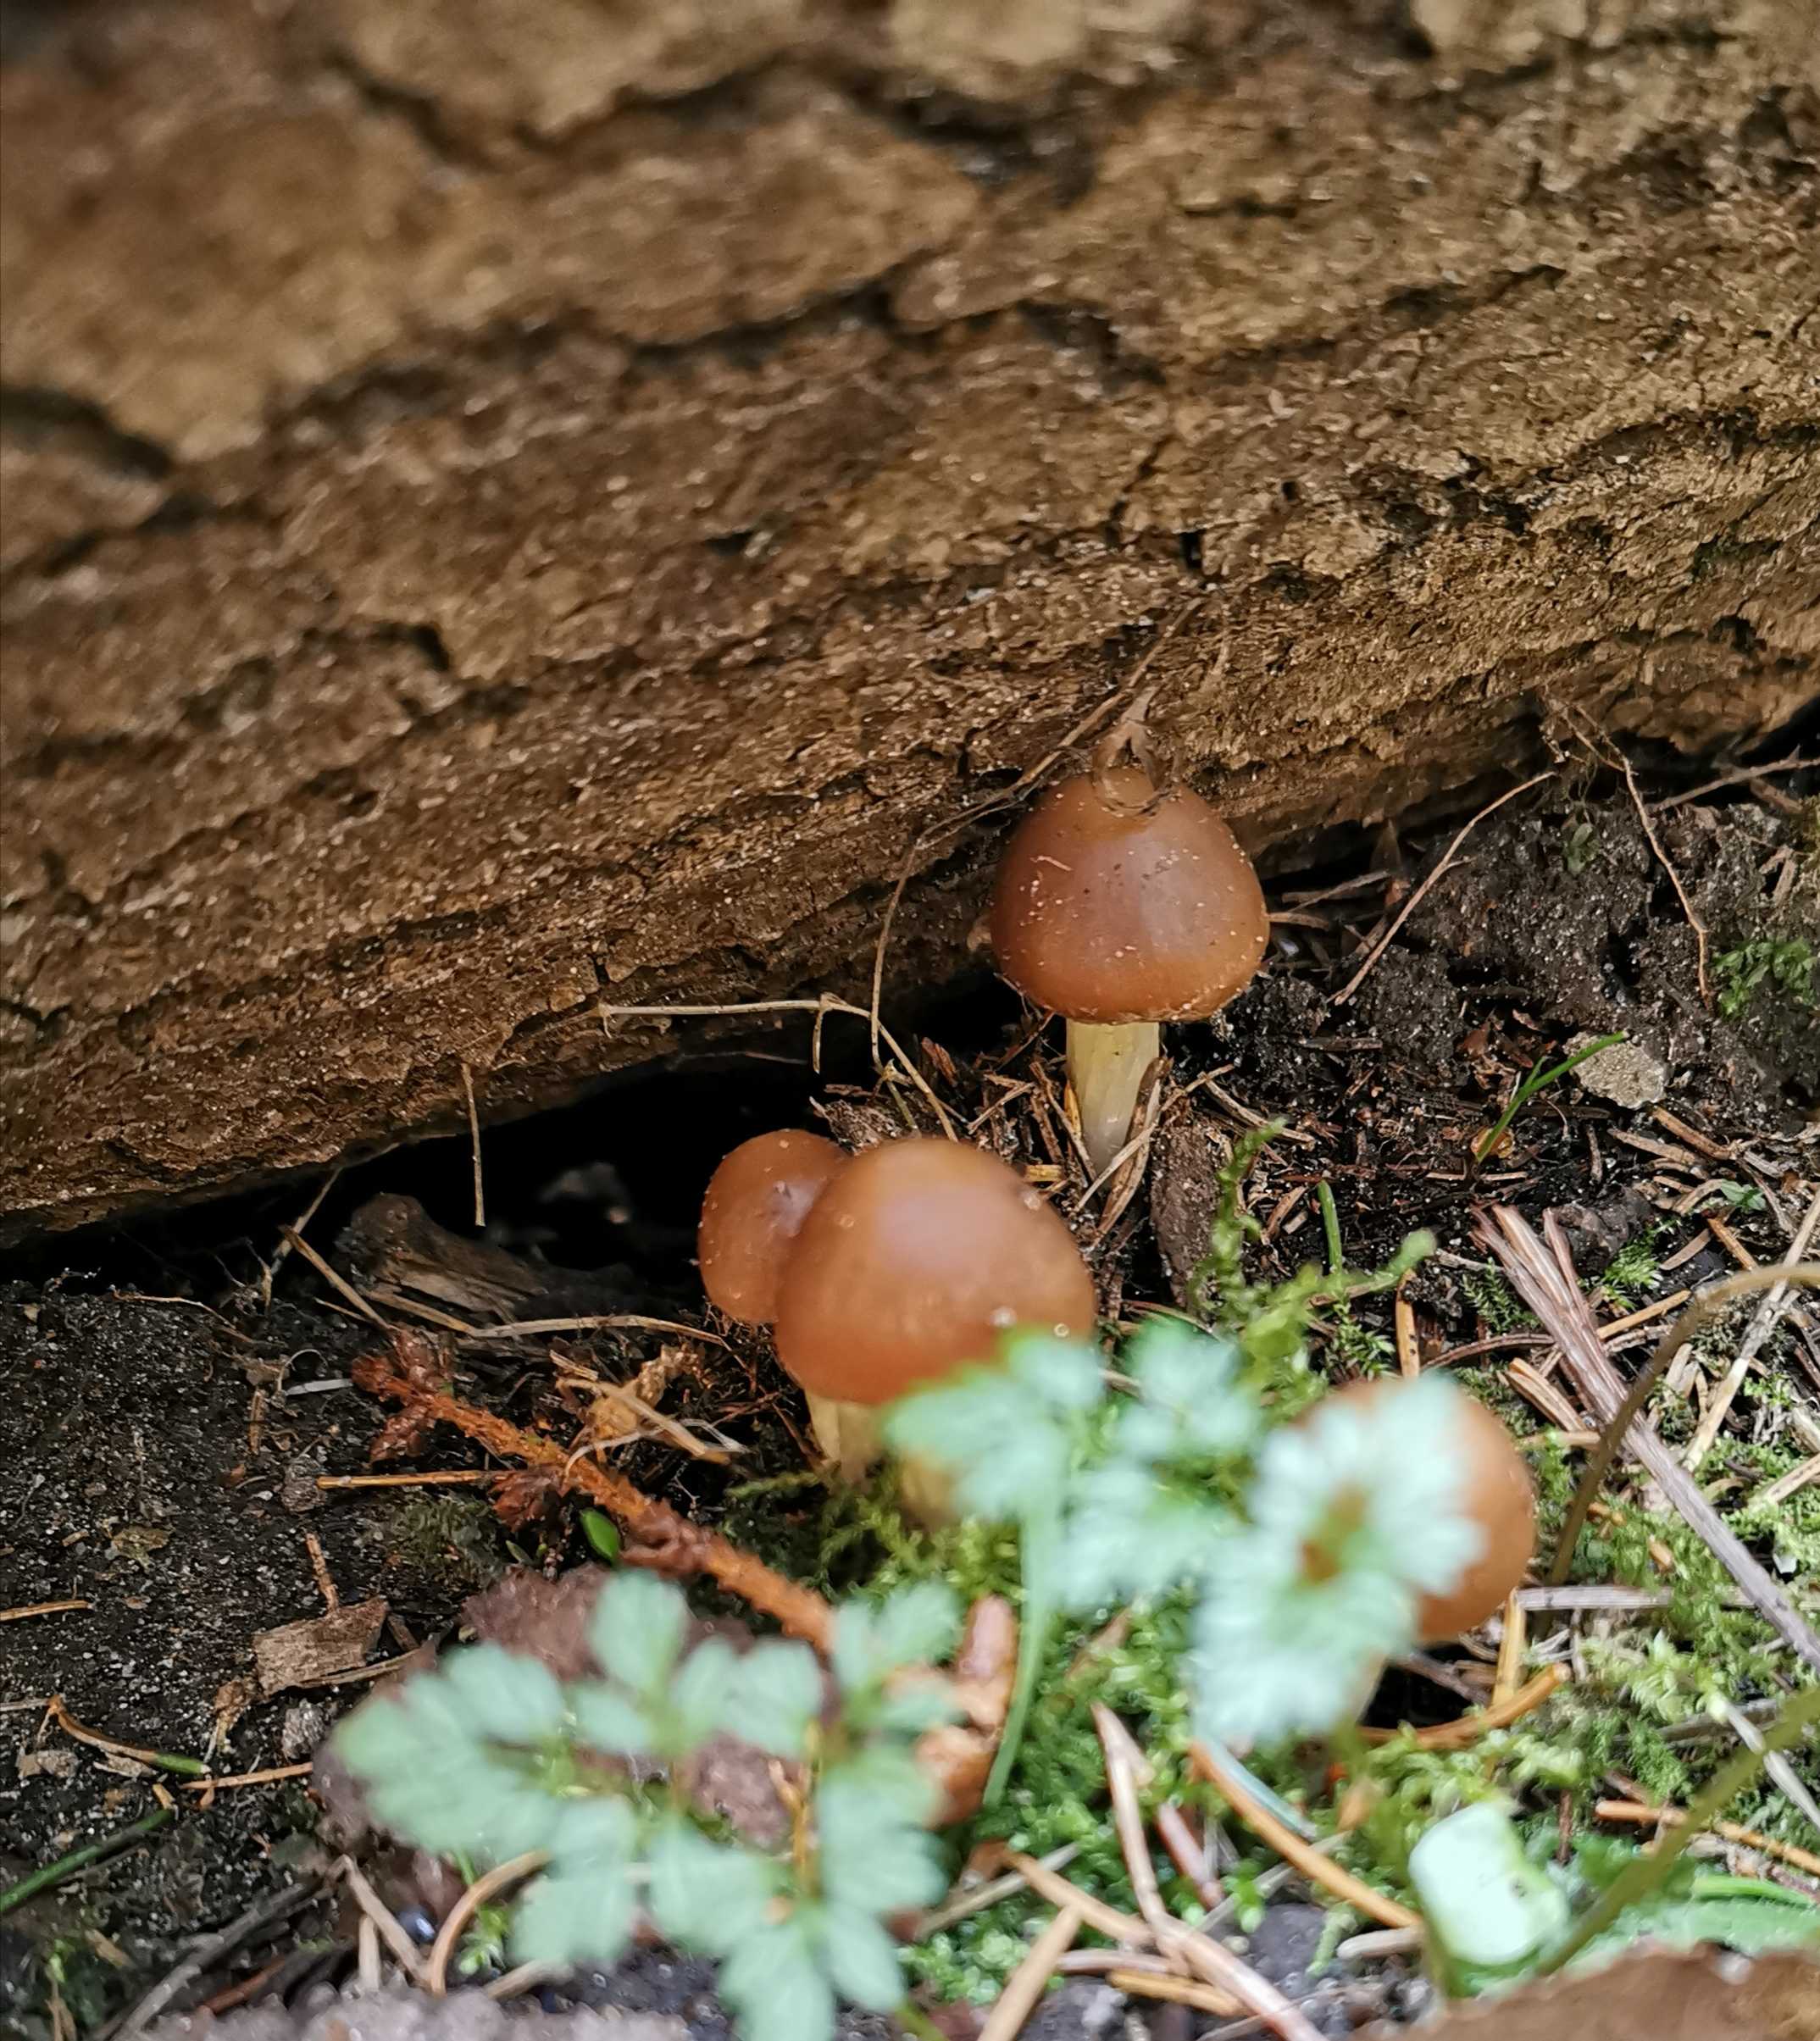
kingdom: Fungi
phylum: Basidiomycota
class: Agaricomycetes
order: Agaricales
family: Psathyrellaceae
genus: Psathyrella
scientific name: Psathyrella spadiceogrisea
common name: gråbrun mørkhat
